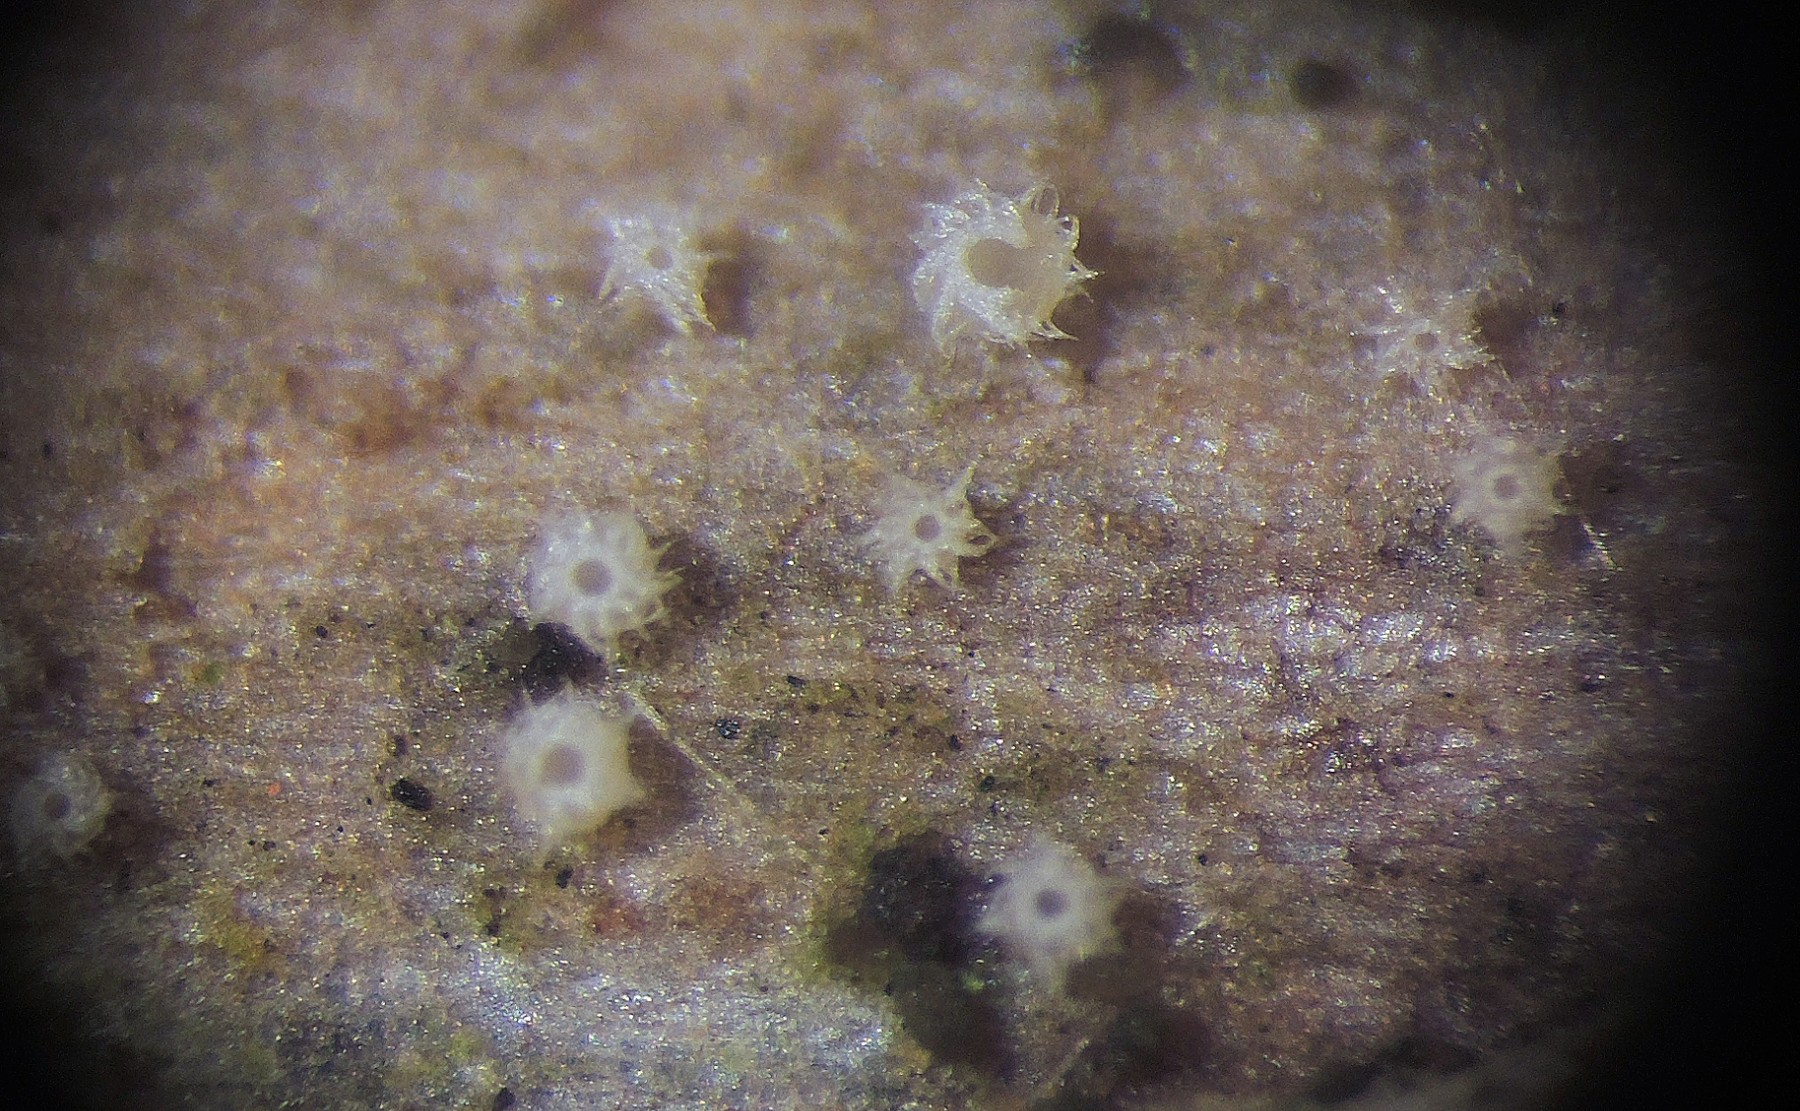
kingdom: Fungi
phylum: Ascomycota
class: Leotiomycetes
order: Helotiales
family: Hyaloscyphaceae
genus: Urceolella
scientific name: Urceolella crispula
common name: tangenthåret kugleskive
